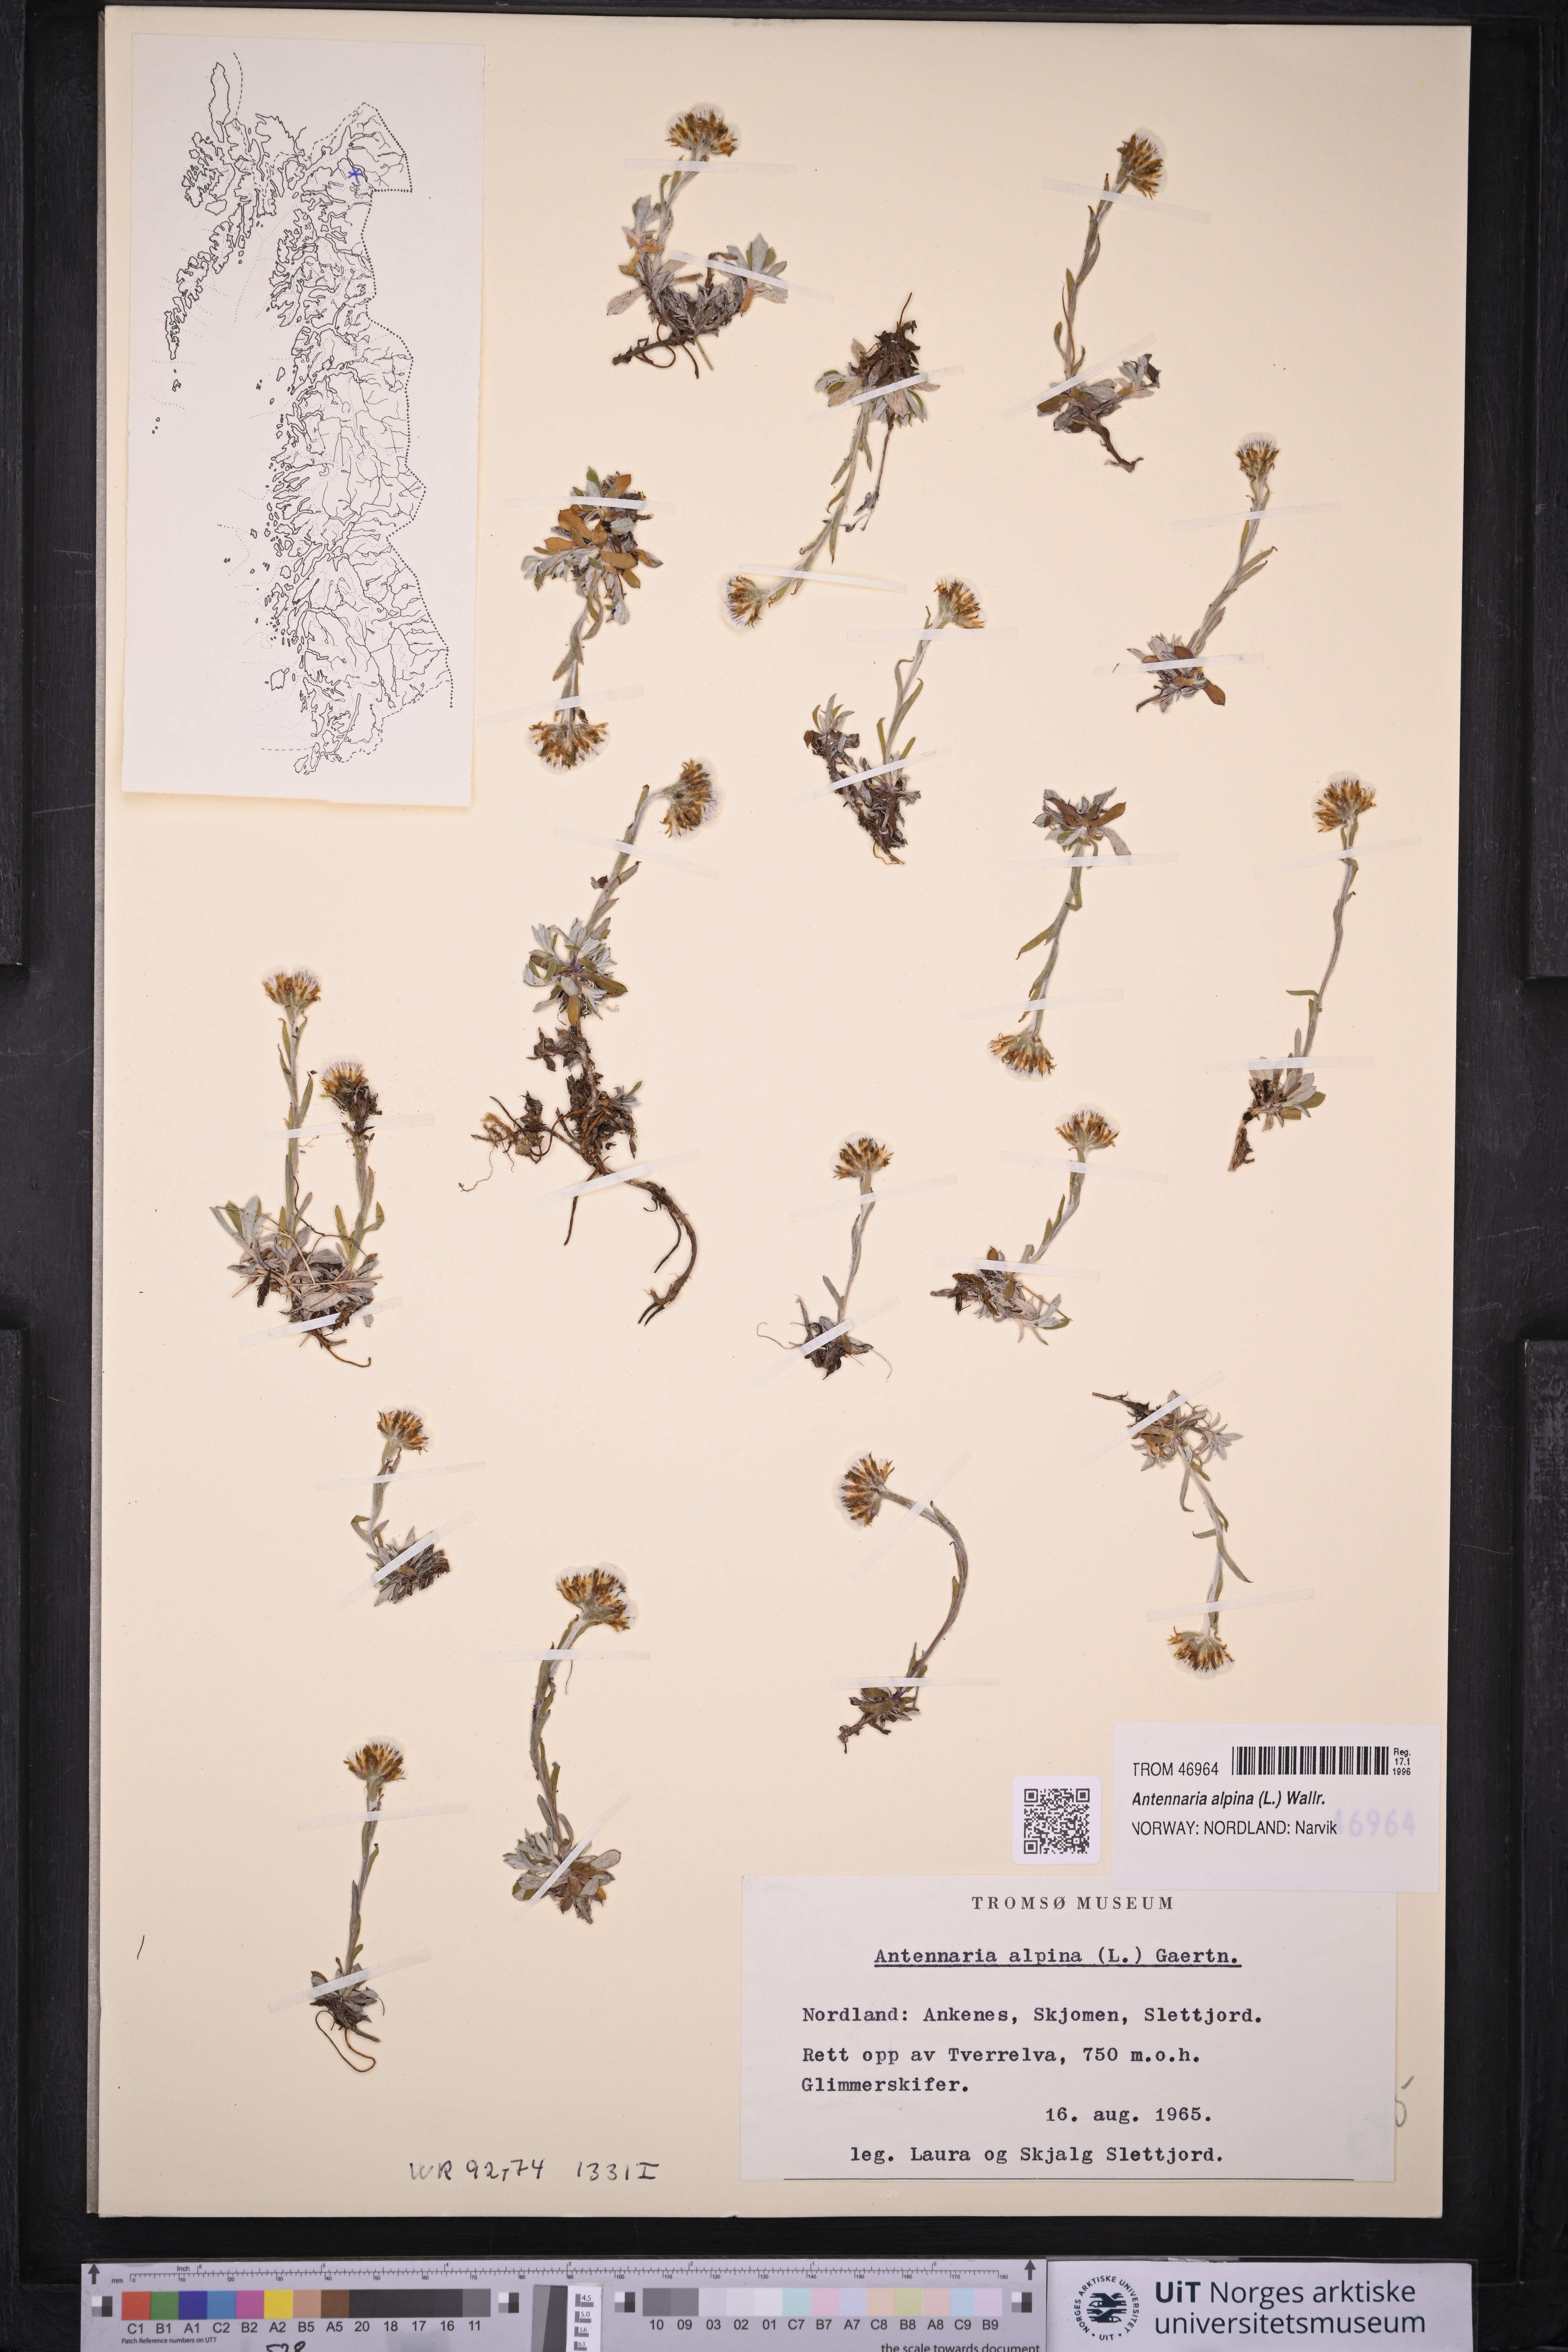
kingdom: Plantae
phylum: Tracheophyta
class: Magnoliopsida
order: Asterales
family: Asteraceae
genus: Antennaria
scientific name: Antennaria alpina
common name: Alpine pussytoes
